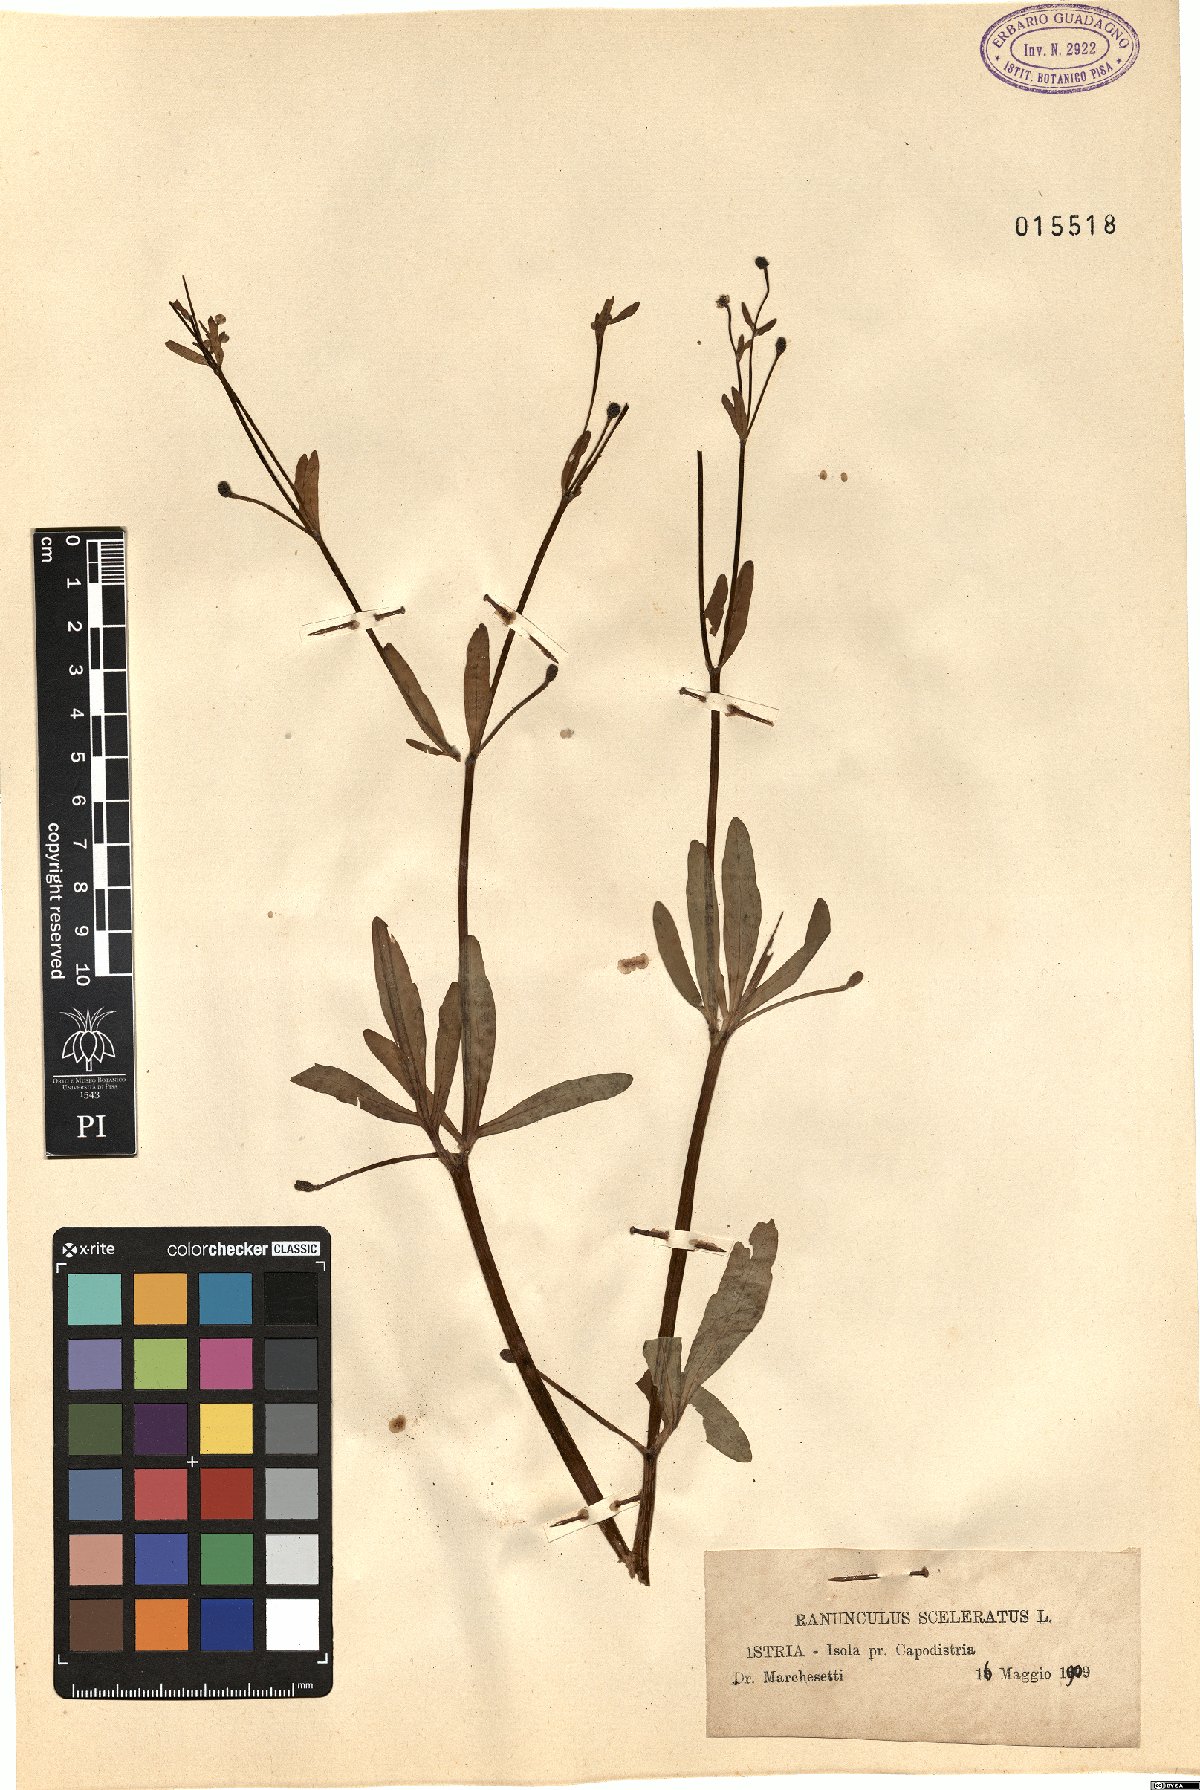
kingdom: Plantae
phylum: Tracheophyta
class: Magnoliopsida
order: Ranunculales
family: Ranunculaceae
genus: Ranunculus
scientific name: Ranunculus sceleratus
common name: Celery-leaved buttercup
